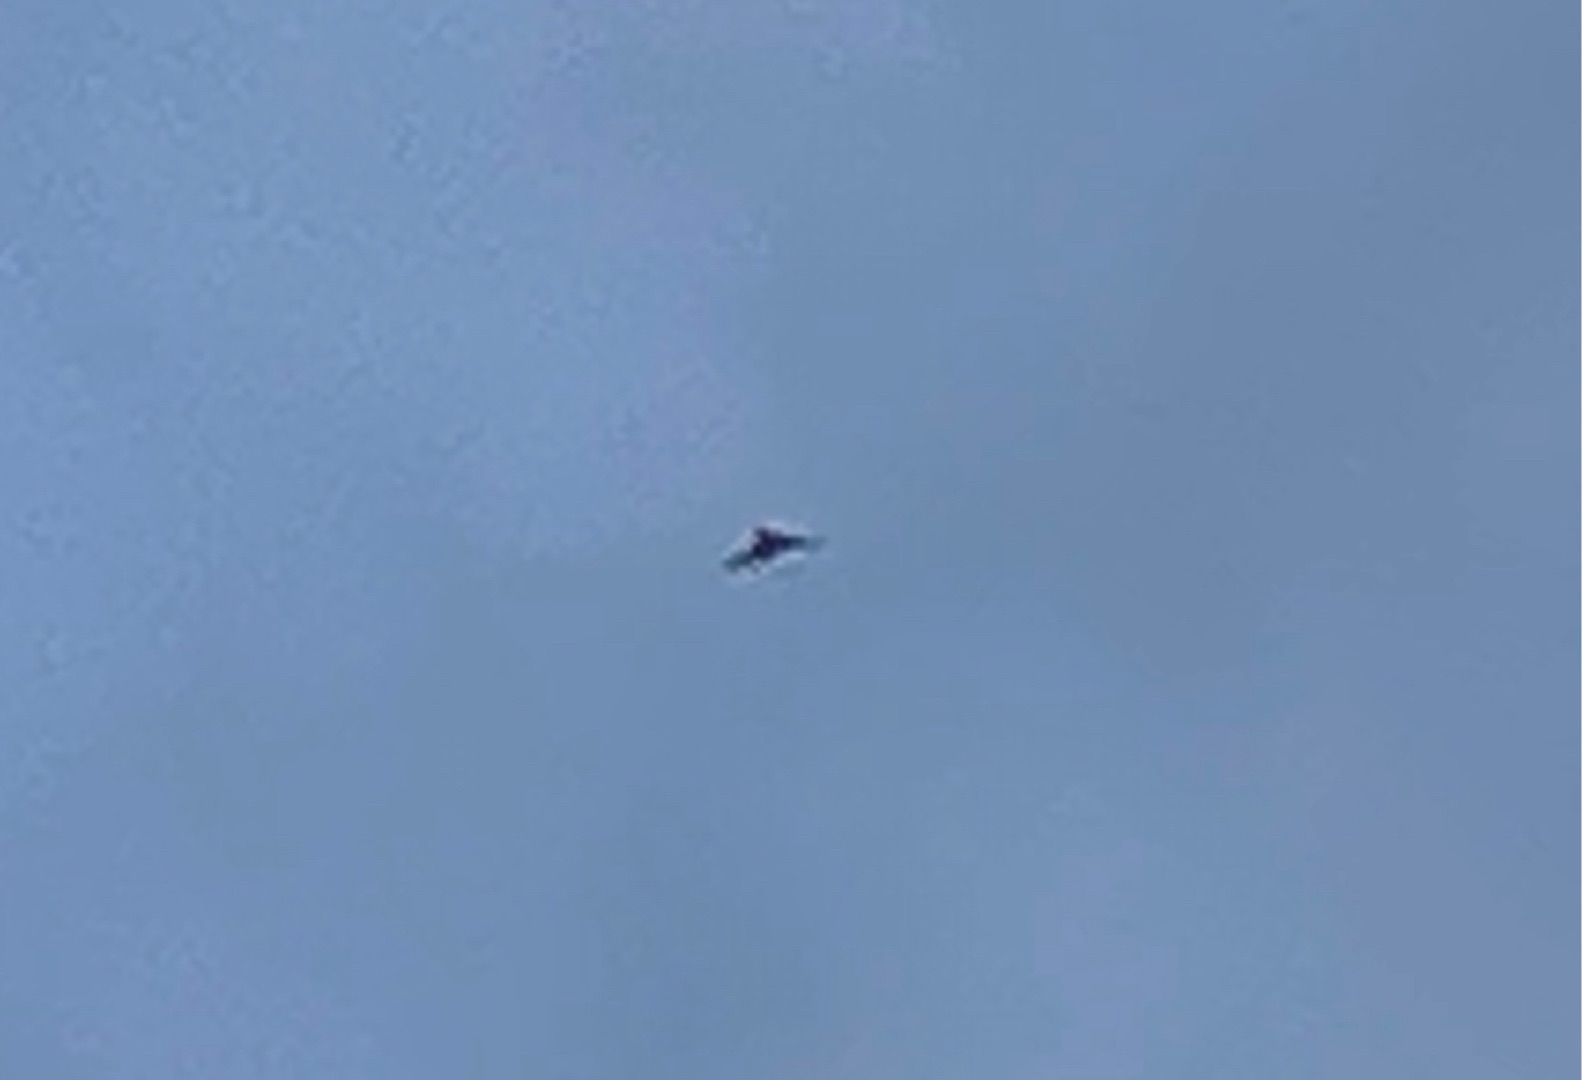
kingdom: Animalia
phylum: Chordata
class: Aves
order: Falconiformes
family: Falconidae
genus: Falco
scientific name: Falco tinnunculus
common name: Tårnfalk
